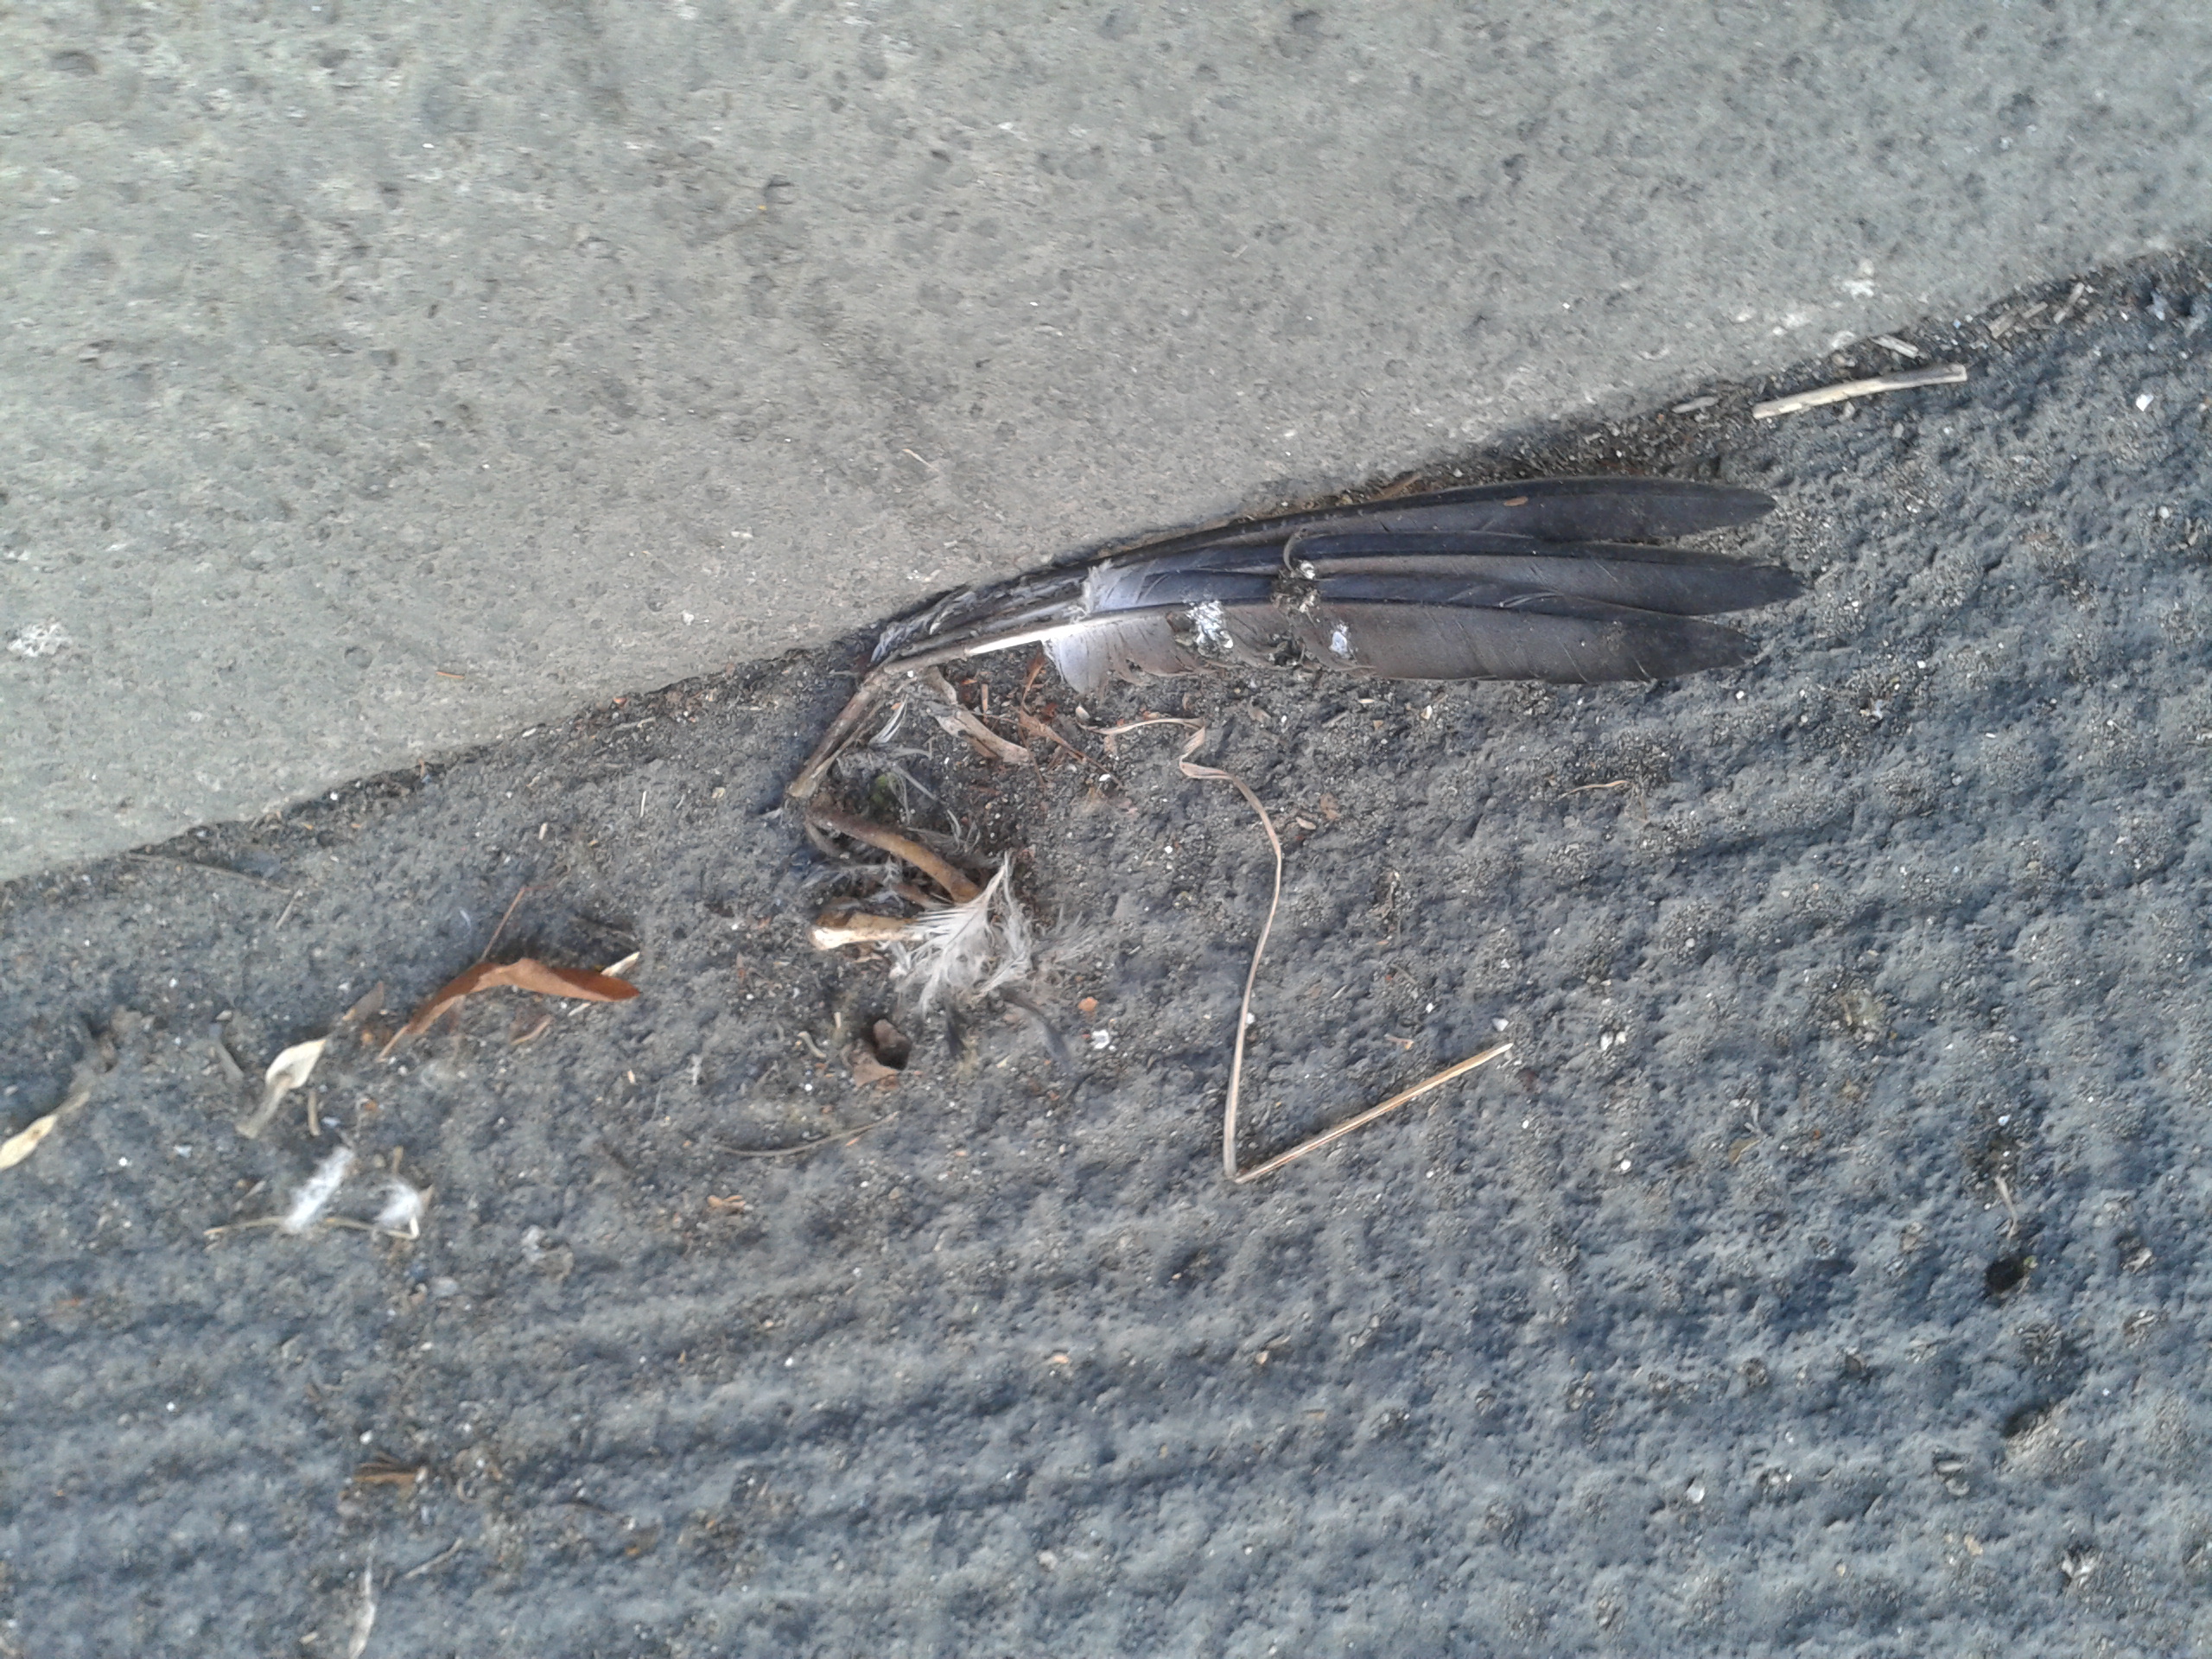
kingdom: Animalia
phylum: Chordata
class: Aves
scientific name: Aves
